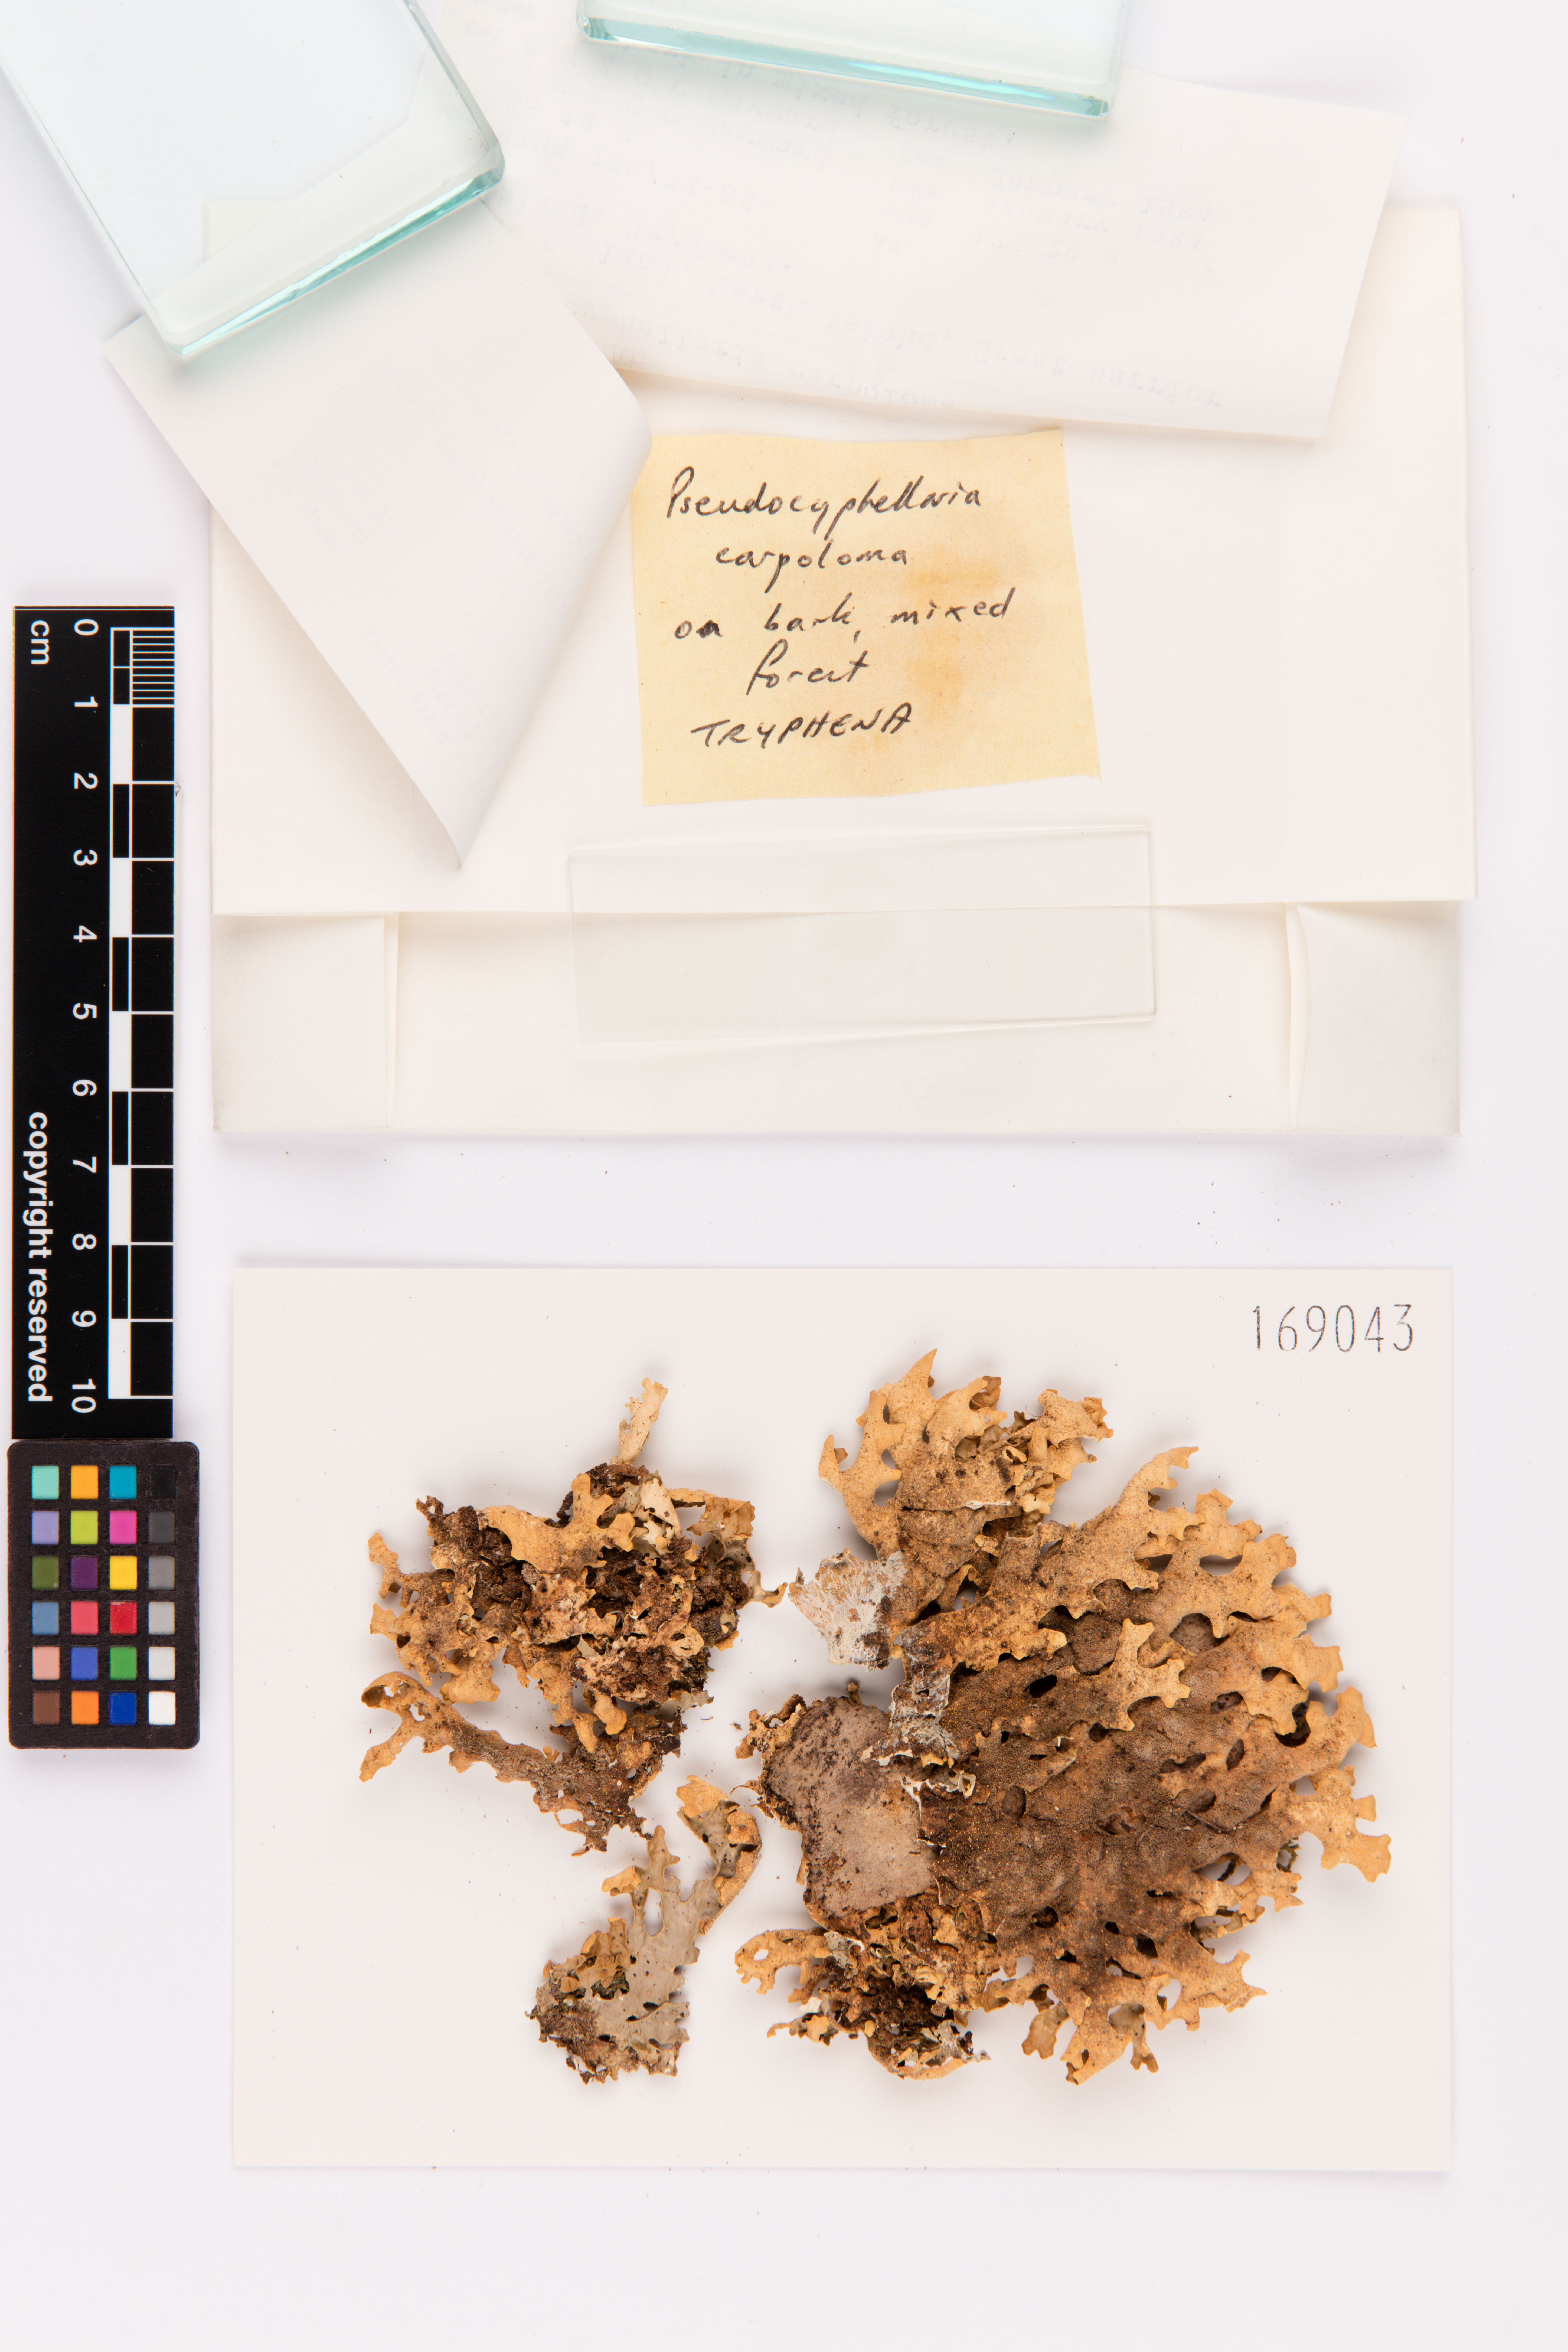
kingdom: Fungi
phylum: Ascomycota
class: Lecanoromycetes
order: Peltigerales
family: Lobariaceae
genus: Pseudocyphellaria
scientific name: Pseudocyphellaria carpoloma
